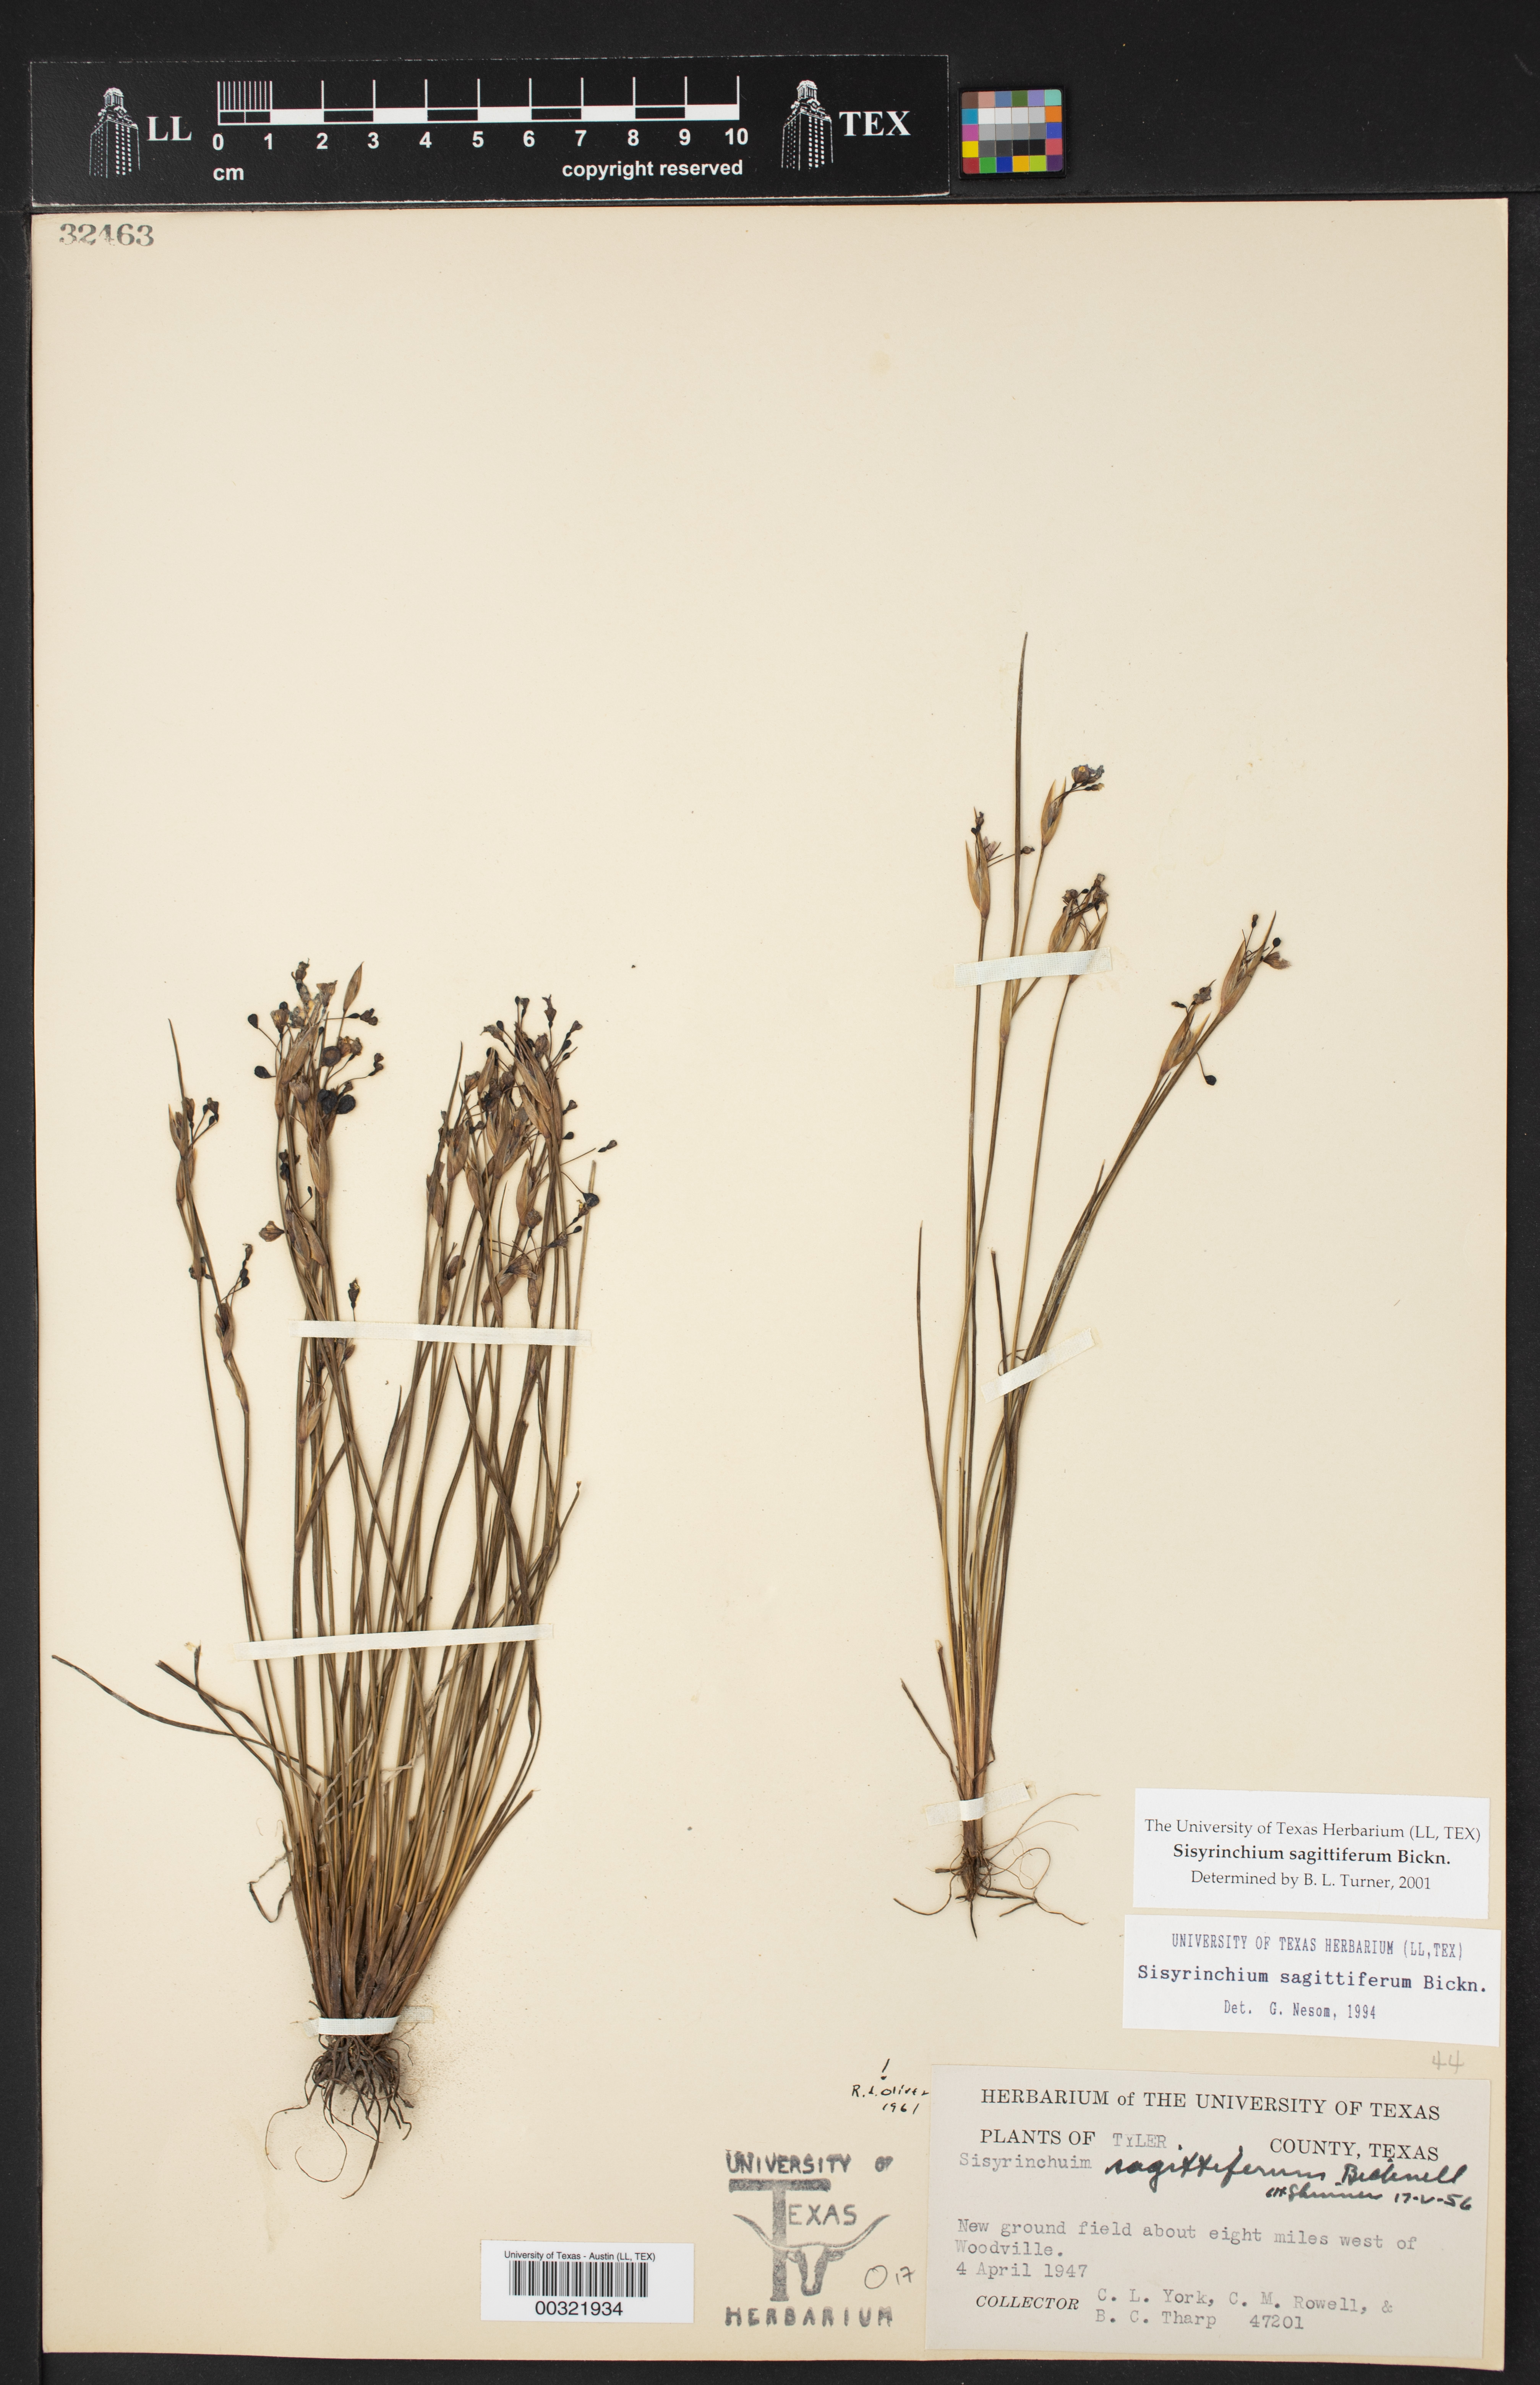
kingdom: Plantae
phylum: Tracheophyta
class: Liliopsida
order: Asparagales
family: Iridaceae
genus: Sisyrinchium
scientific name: Sisyrinchium sagittiferum
